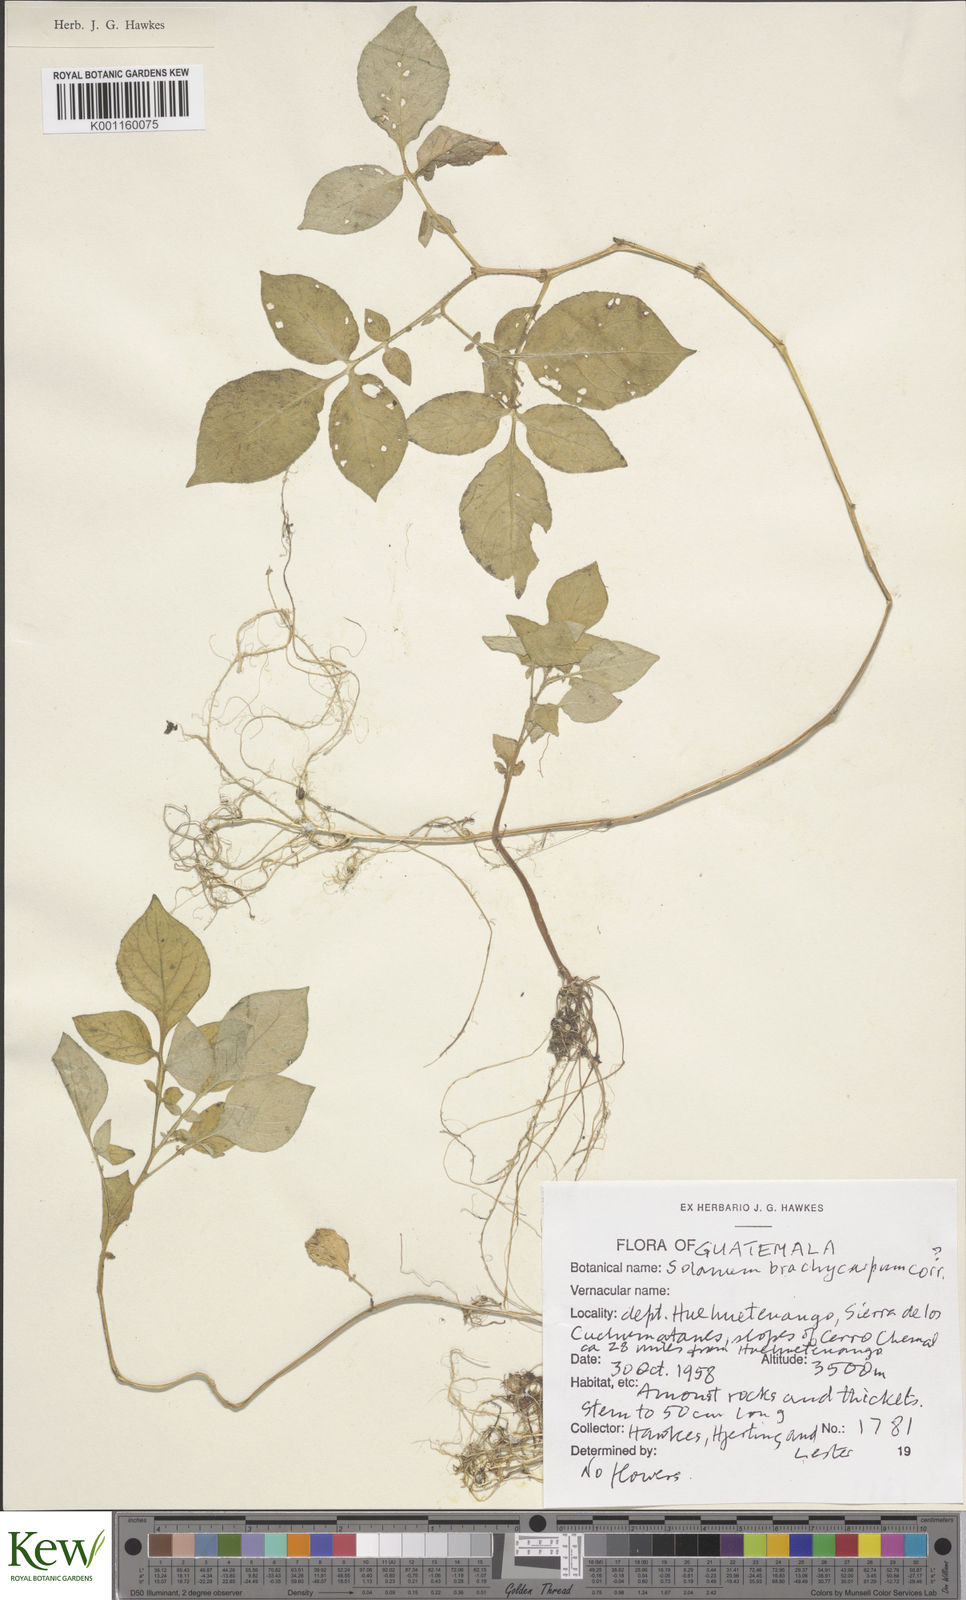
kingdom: Plantae
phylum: Tracheophyta
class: Magnoliopsida
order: Solanales
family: Solanaceae
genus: Solanum
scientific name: Solanum oxycarpum
